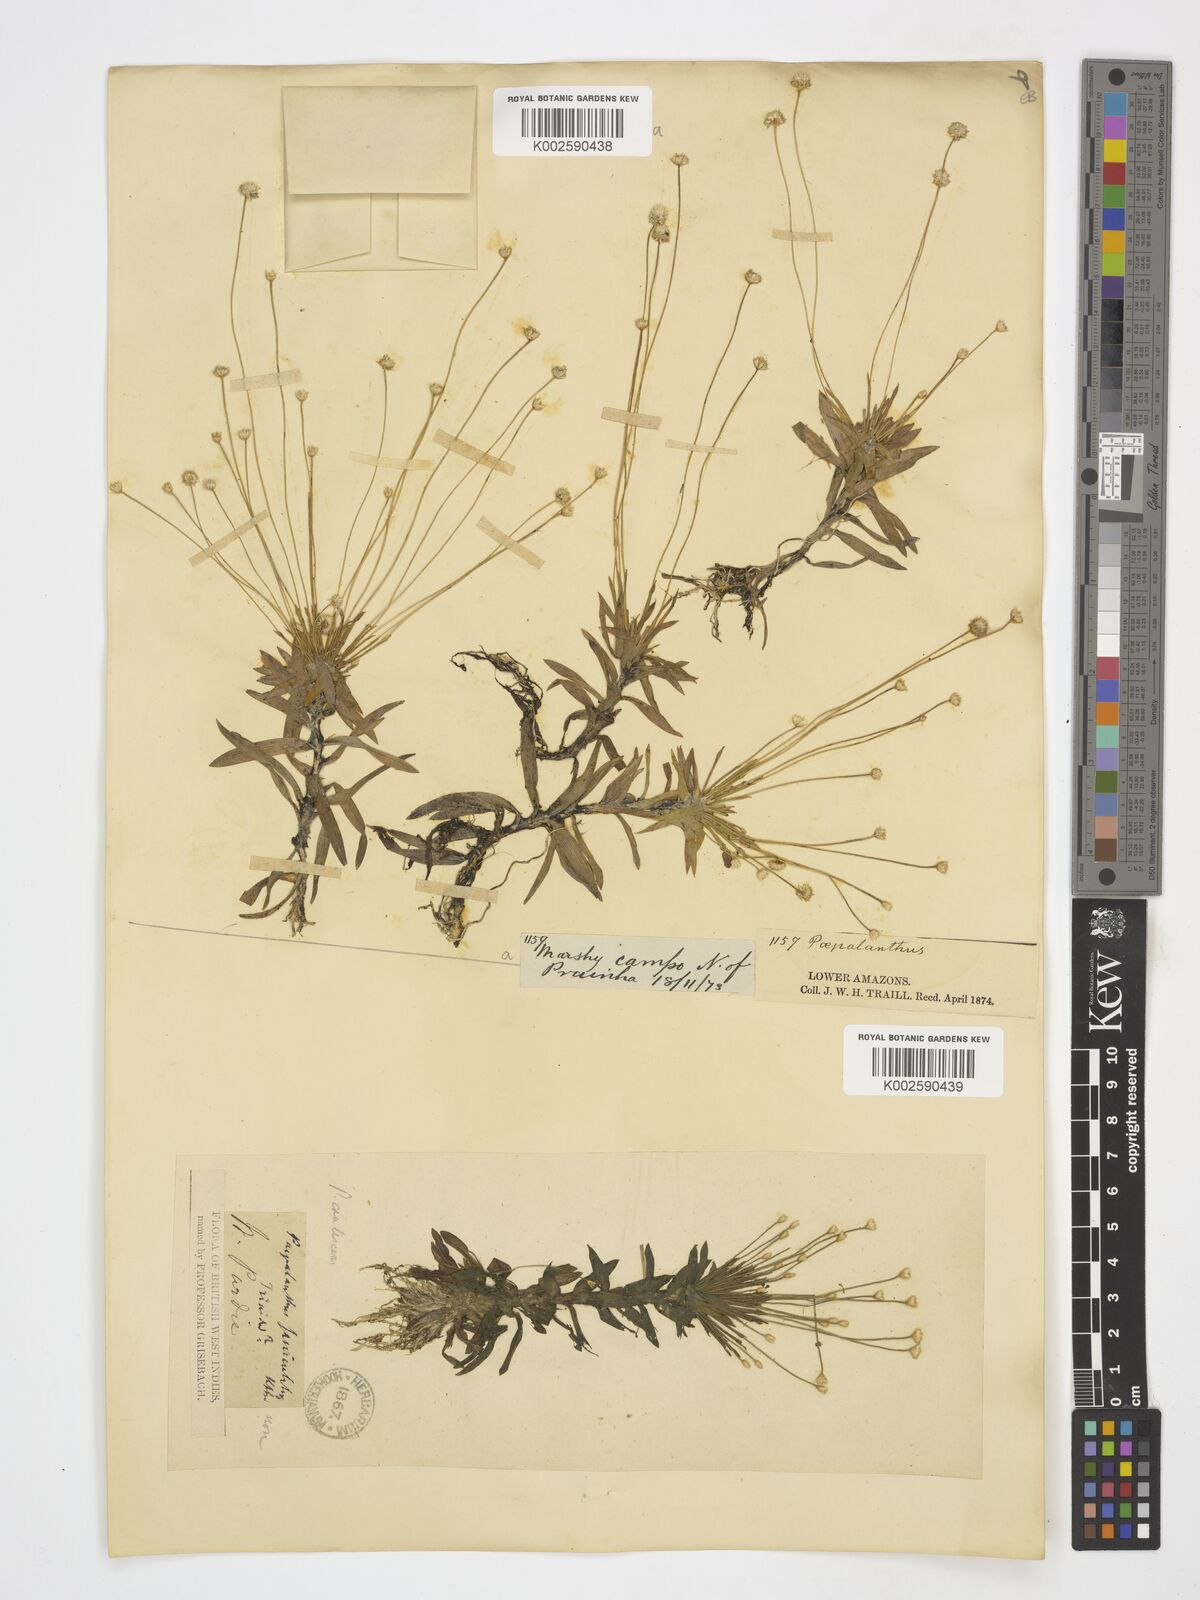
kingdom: Plantae
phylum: Tracheophyta
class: Liliopsida
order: Poales
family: Eriocaulaceae
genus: Paepalanthus
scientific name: Paepalanthus
